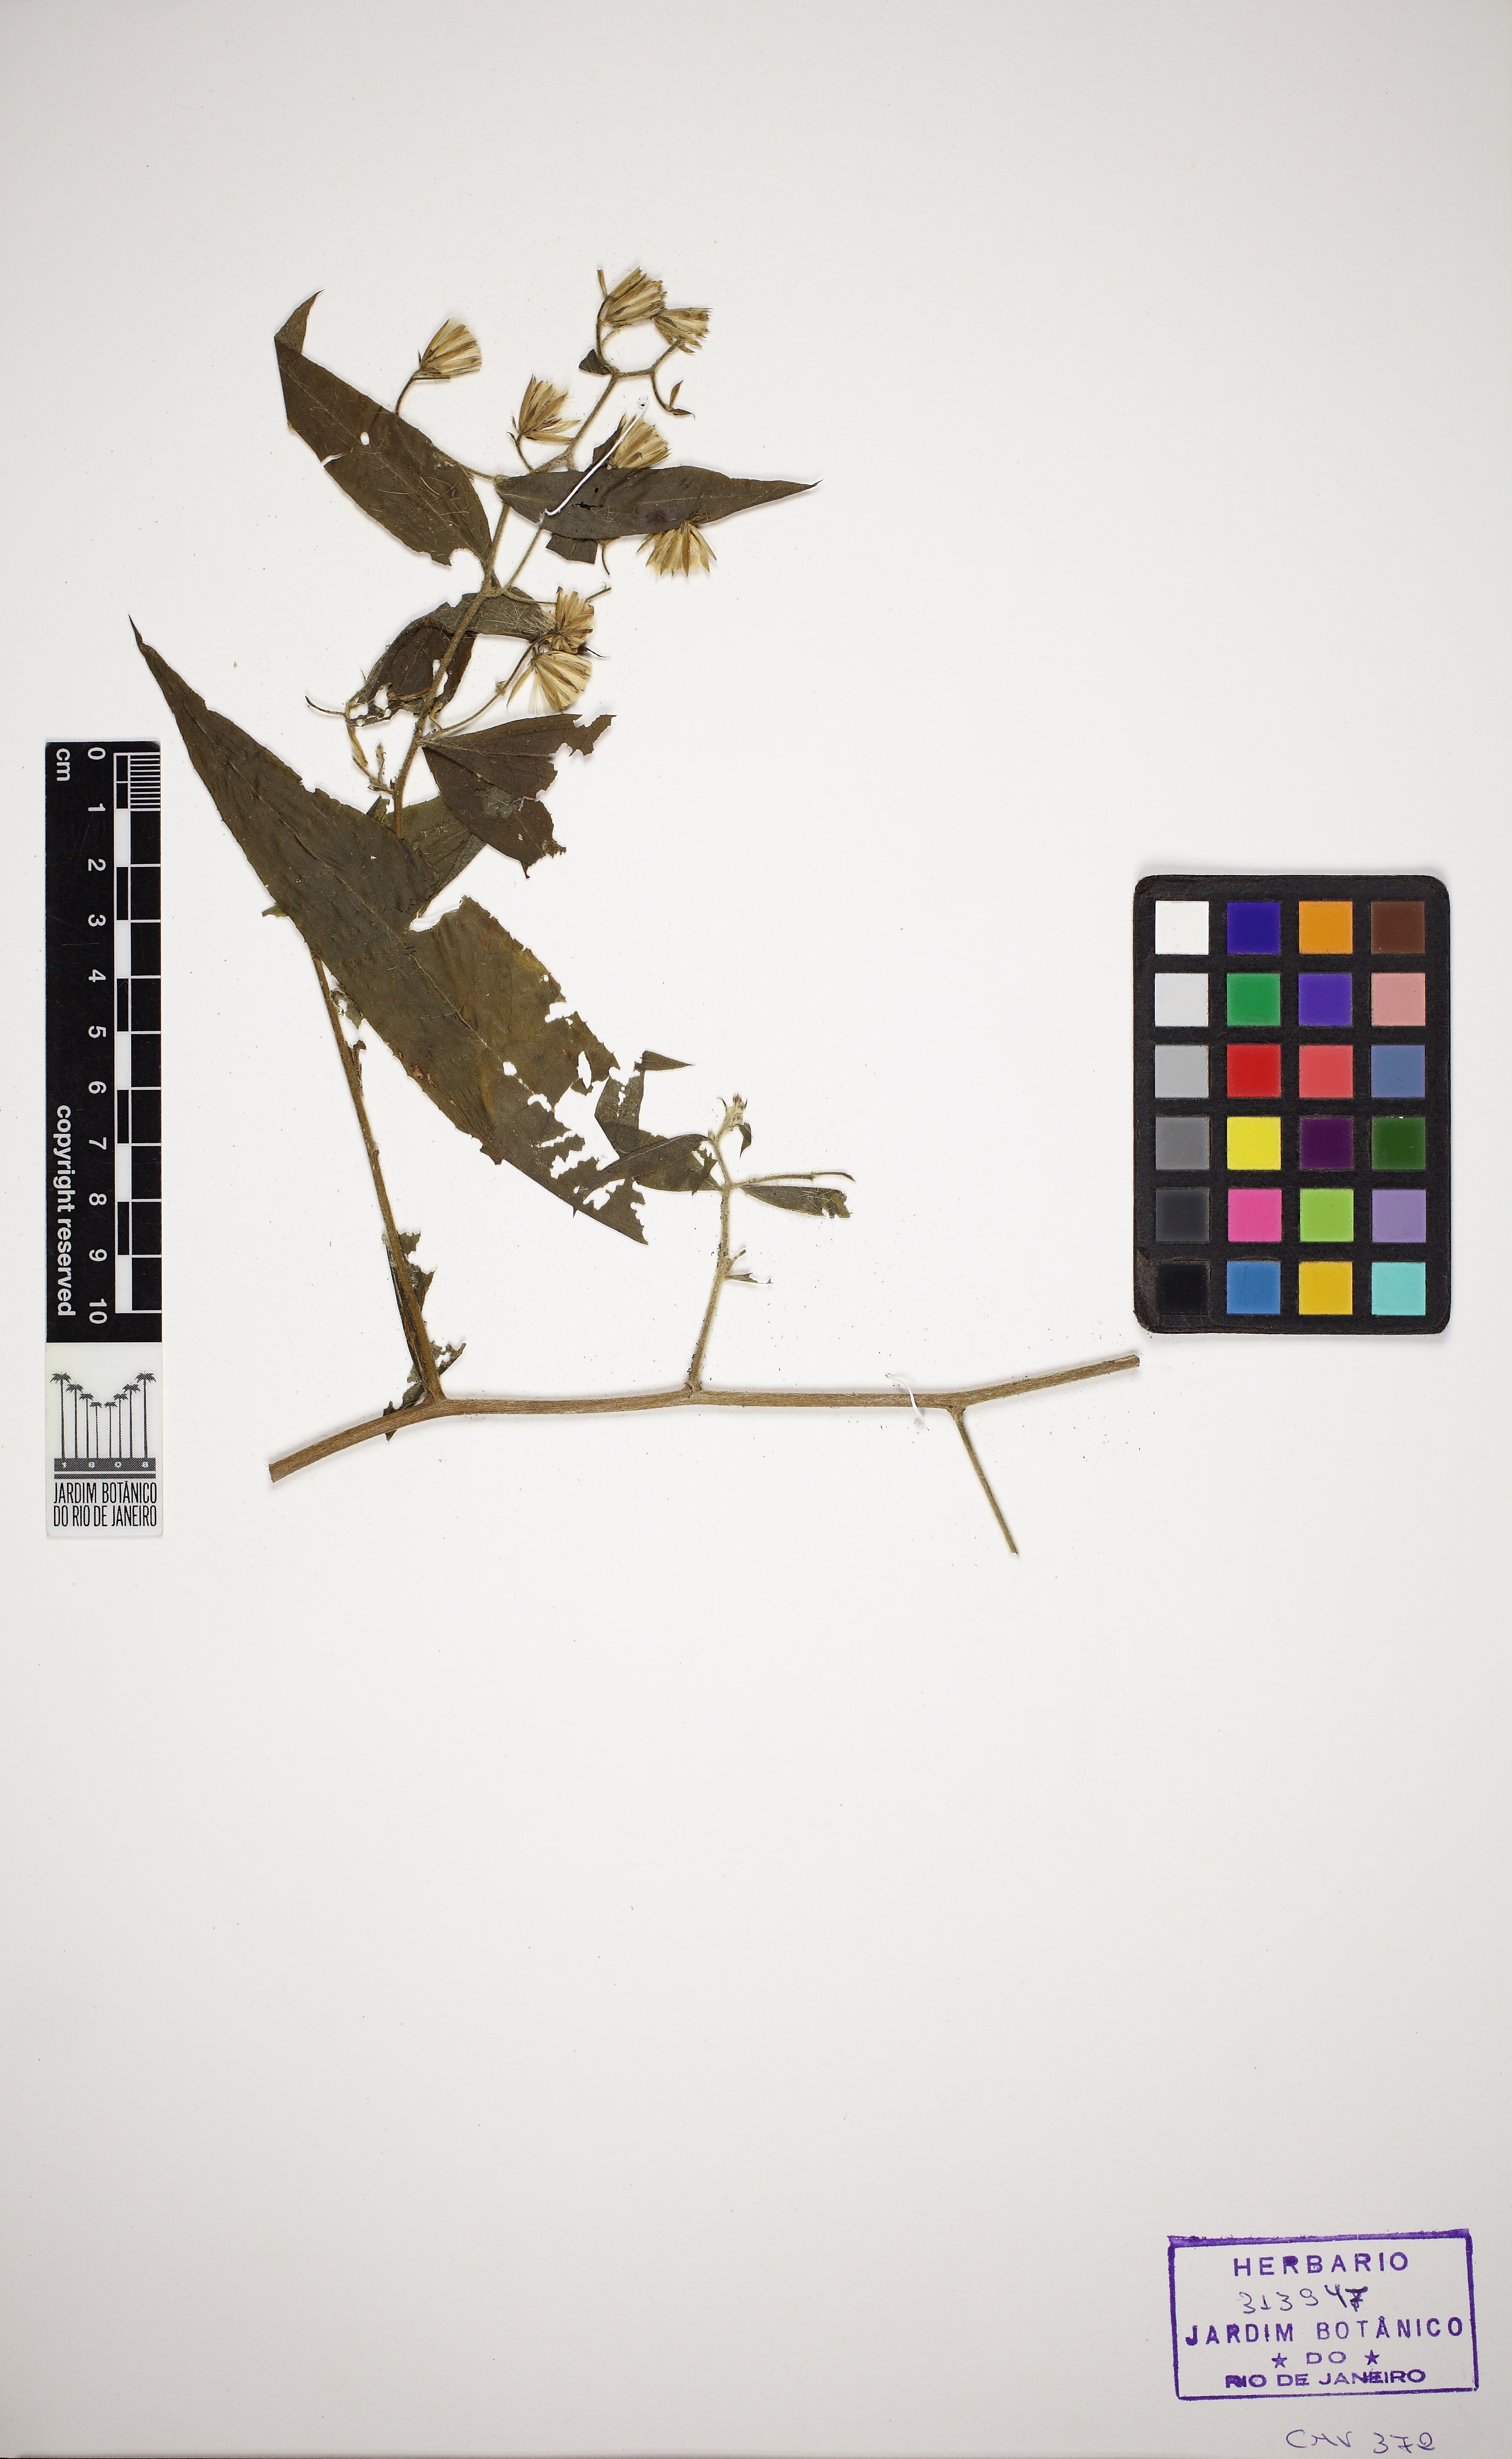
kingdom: Plantae
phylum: Tracheophyta
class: Magnoliopsida
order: Asterales
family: Asteraceae
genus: Trixis
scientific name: Trixis divaricata
